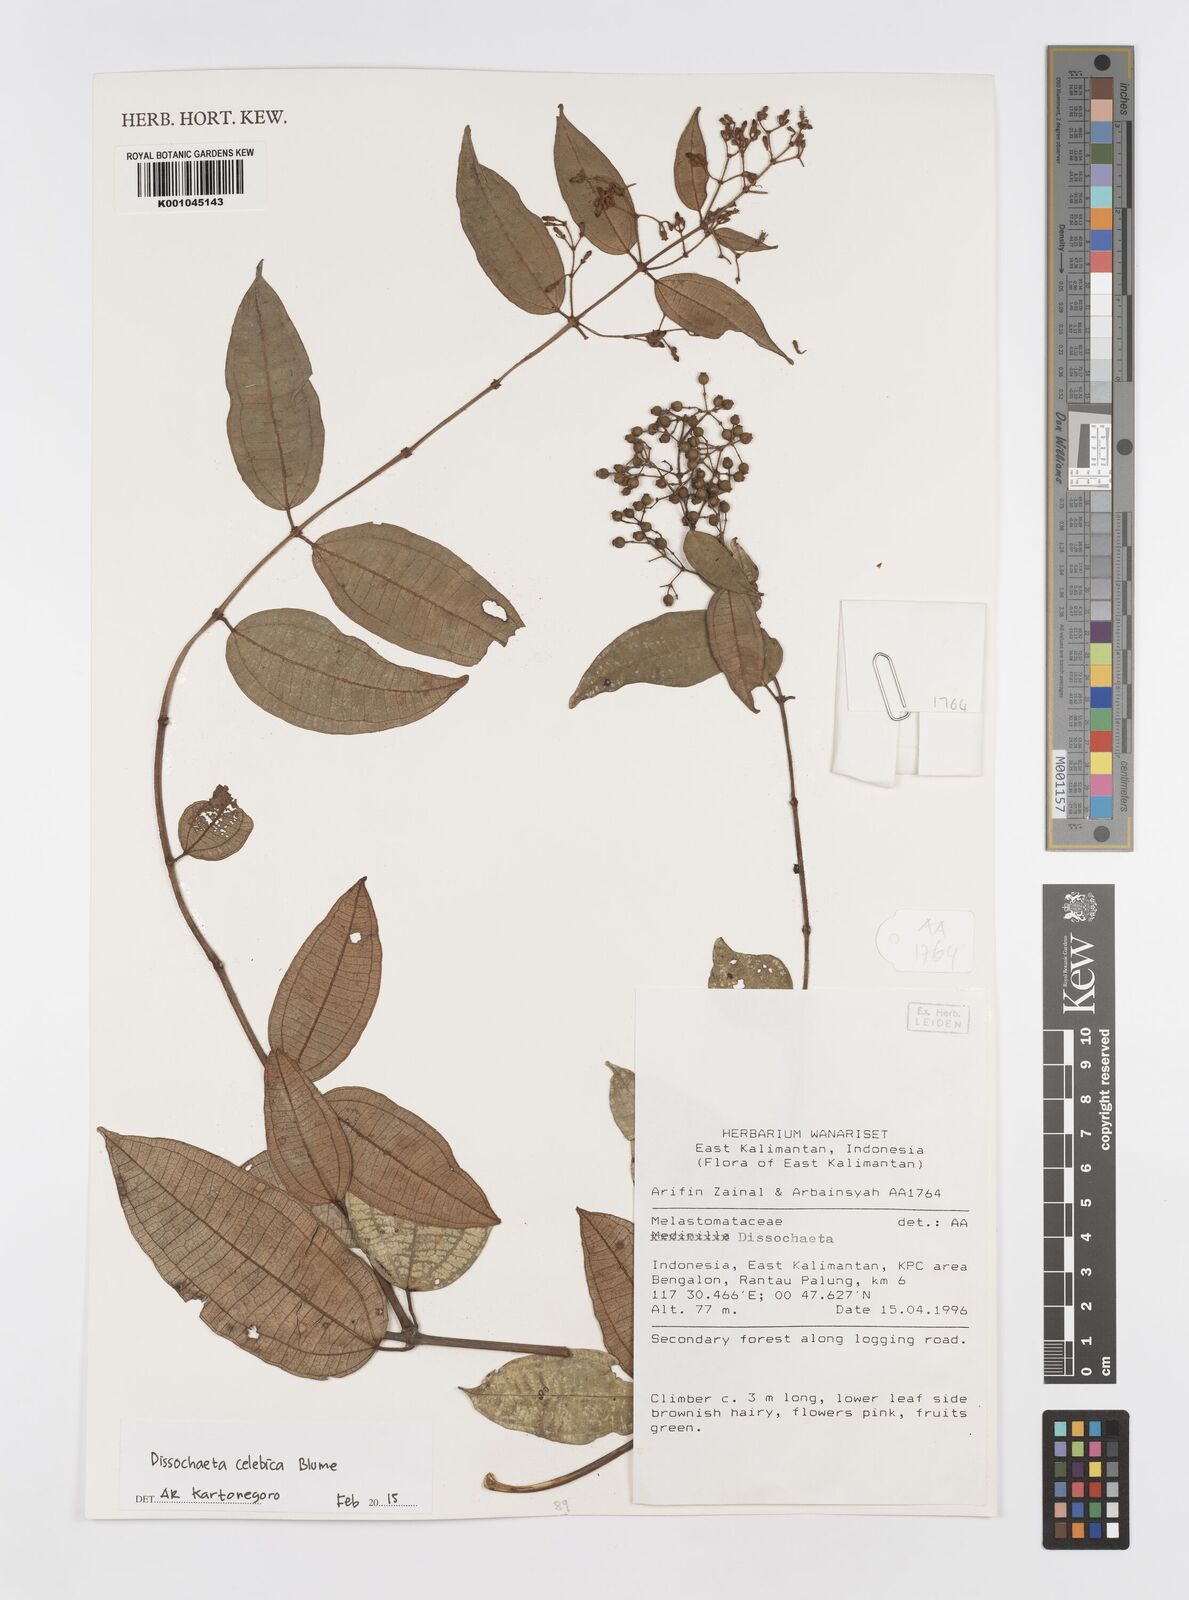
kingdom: Plantae
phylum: Tracheophyta
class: Magnoliopsida
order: Myrtales
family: Melastomataceae
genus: Dissochaeta
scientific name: Dissochaeta celebica
